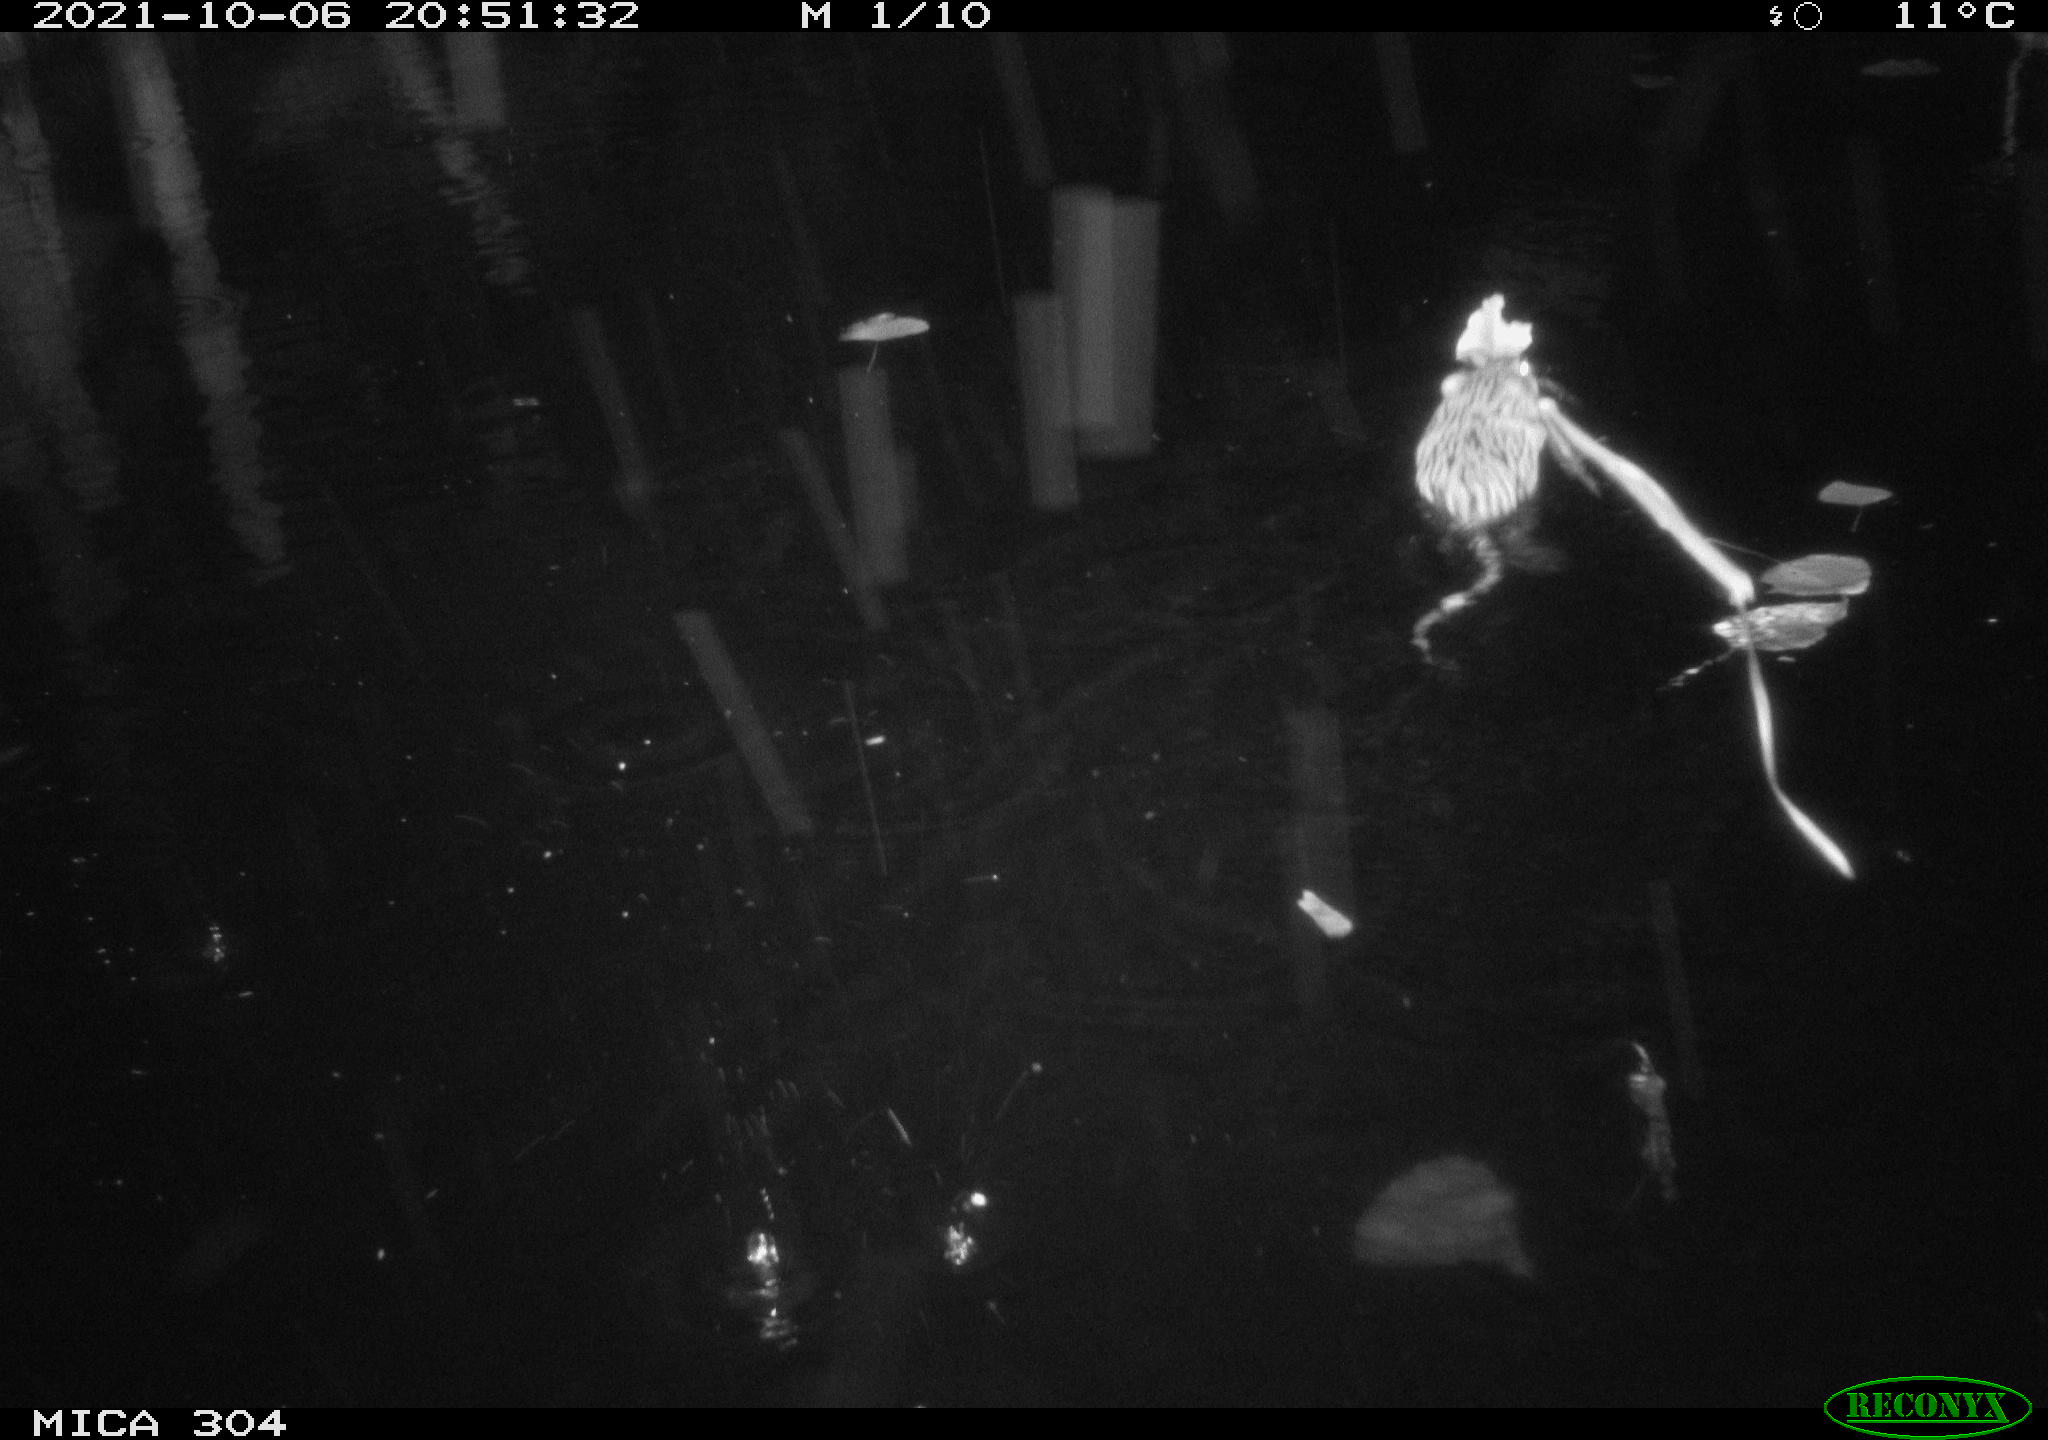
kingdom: Animalia
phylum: Chordata
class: Mammalia
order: Rodentia
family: Cricetidae
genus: Ondatra
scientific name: Ondatra zibethicus
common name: Muskrat
